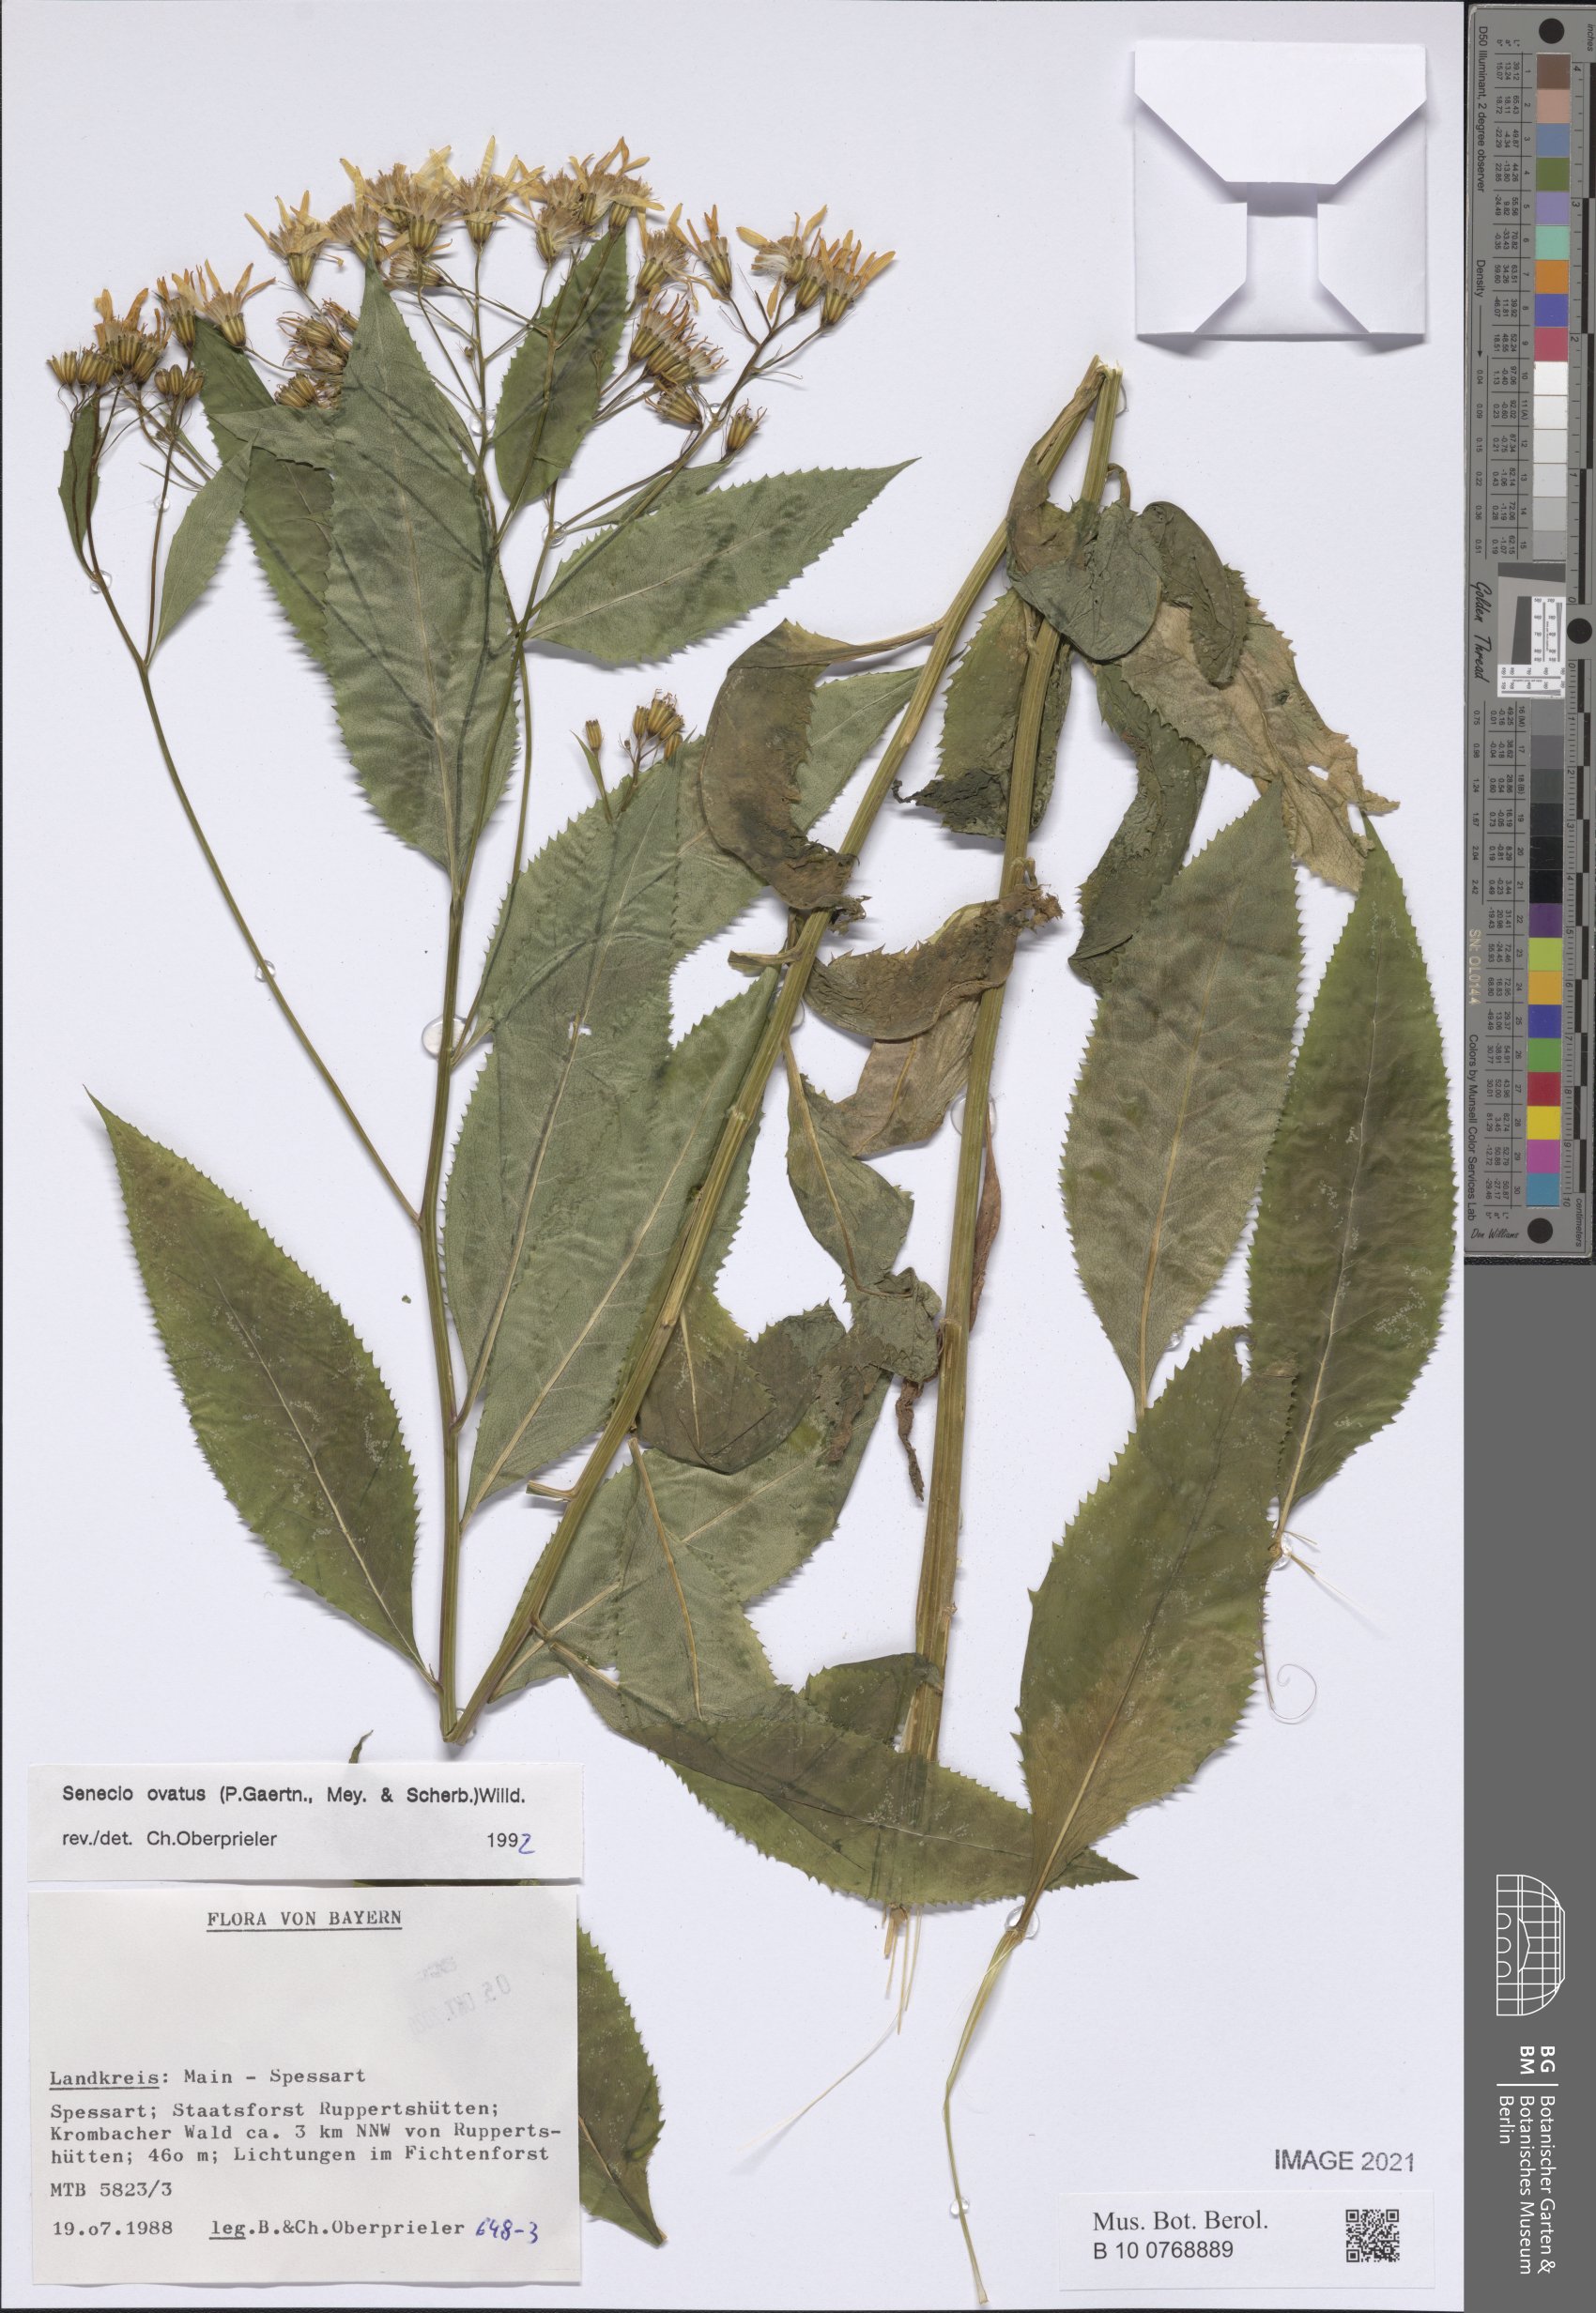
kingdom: Plantae
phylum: Tracheophyta
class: Magnoliopsida
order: Asterales
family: Asteraceae
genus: Senecio
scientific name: Senecio ovatus
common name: Wood ragwort
